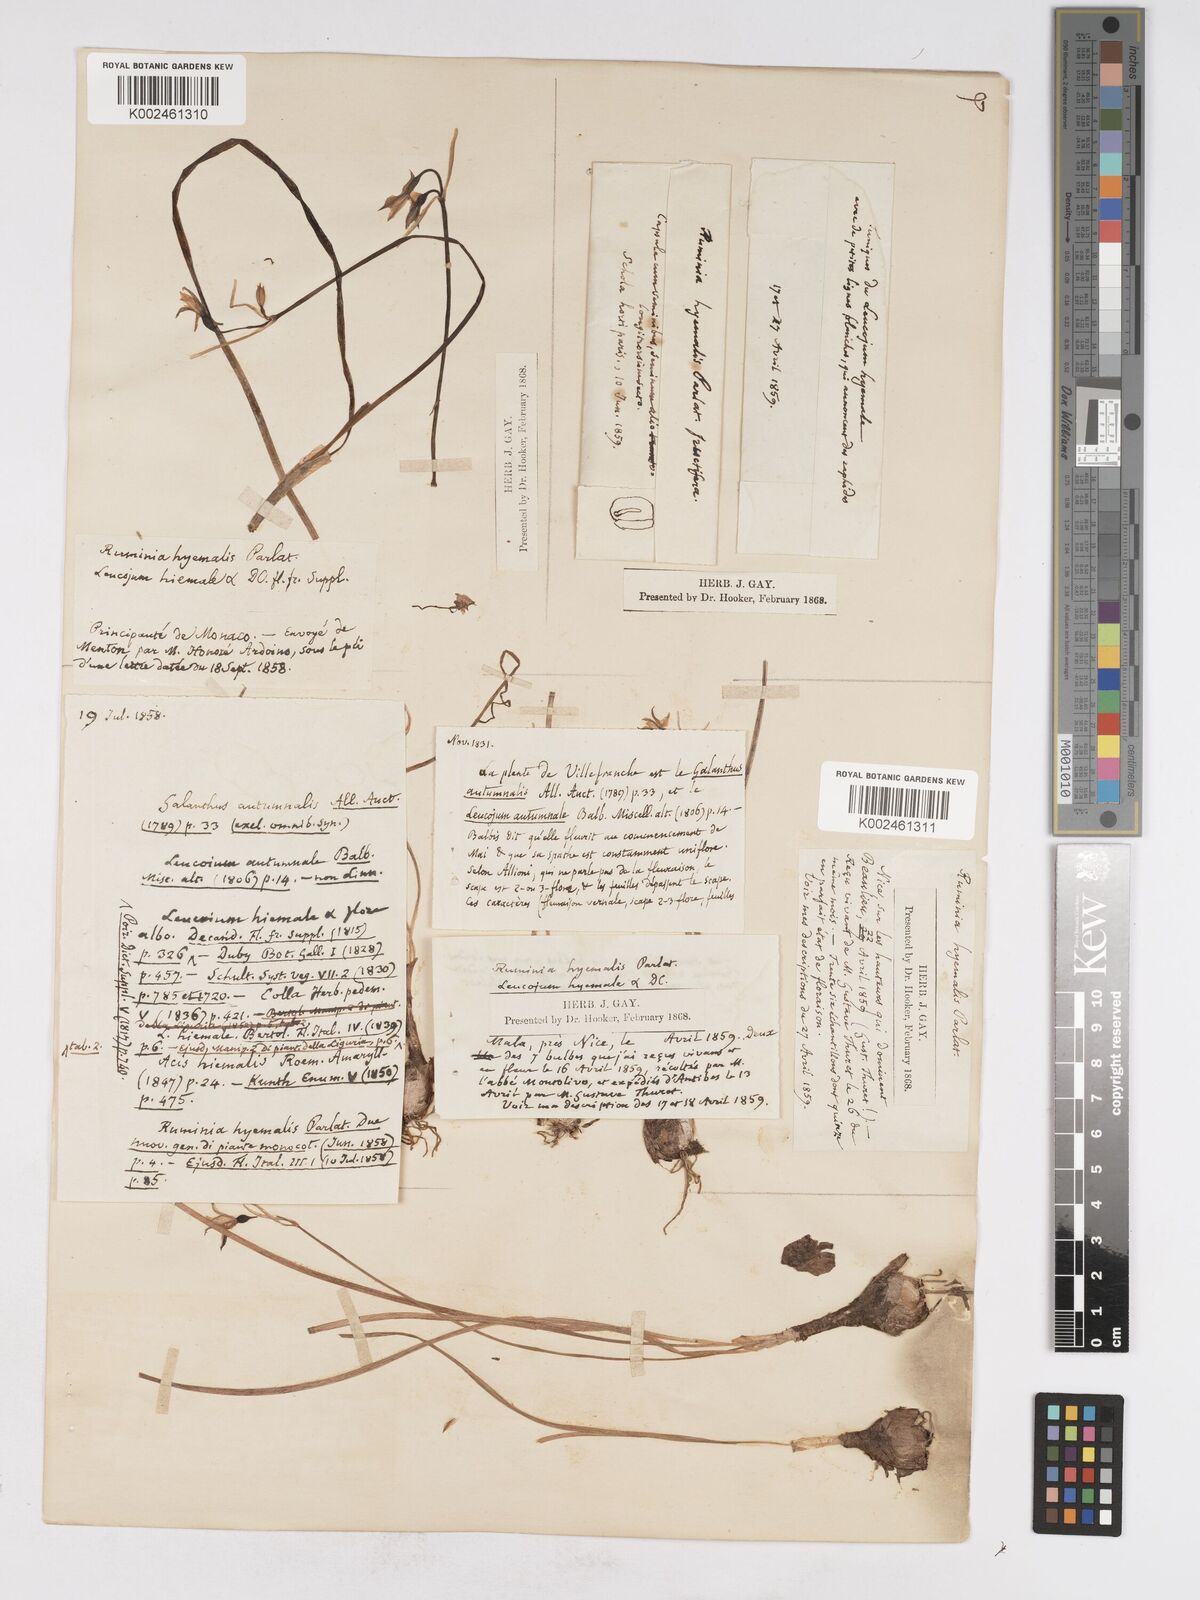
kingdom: Plantae
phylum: Tracheophyta
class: Liliopsida
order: Asparagales
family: Amaryllidaceae
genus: Acis
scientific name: Acis autumnalis
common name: Autumn snowflake
